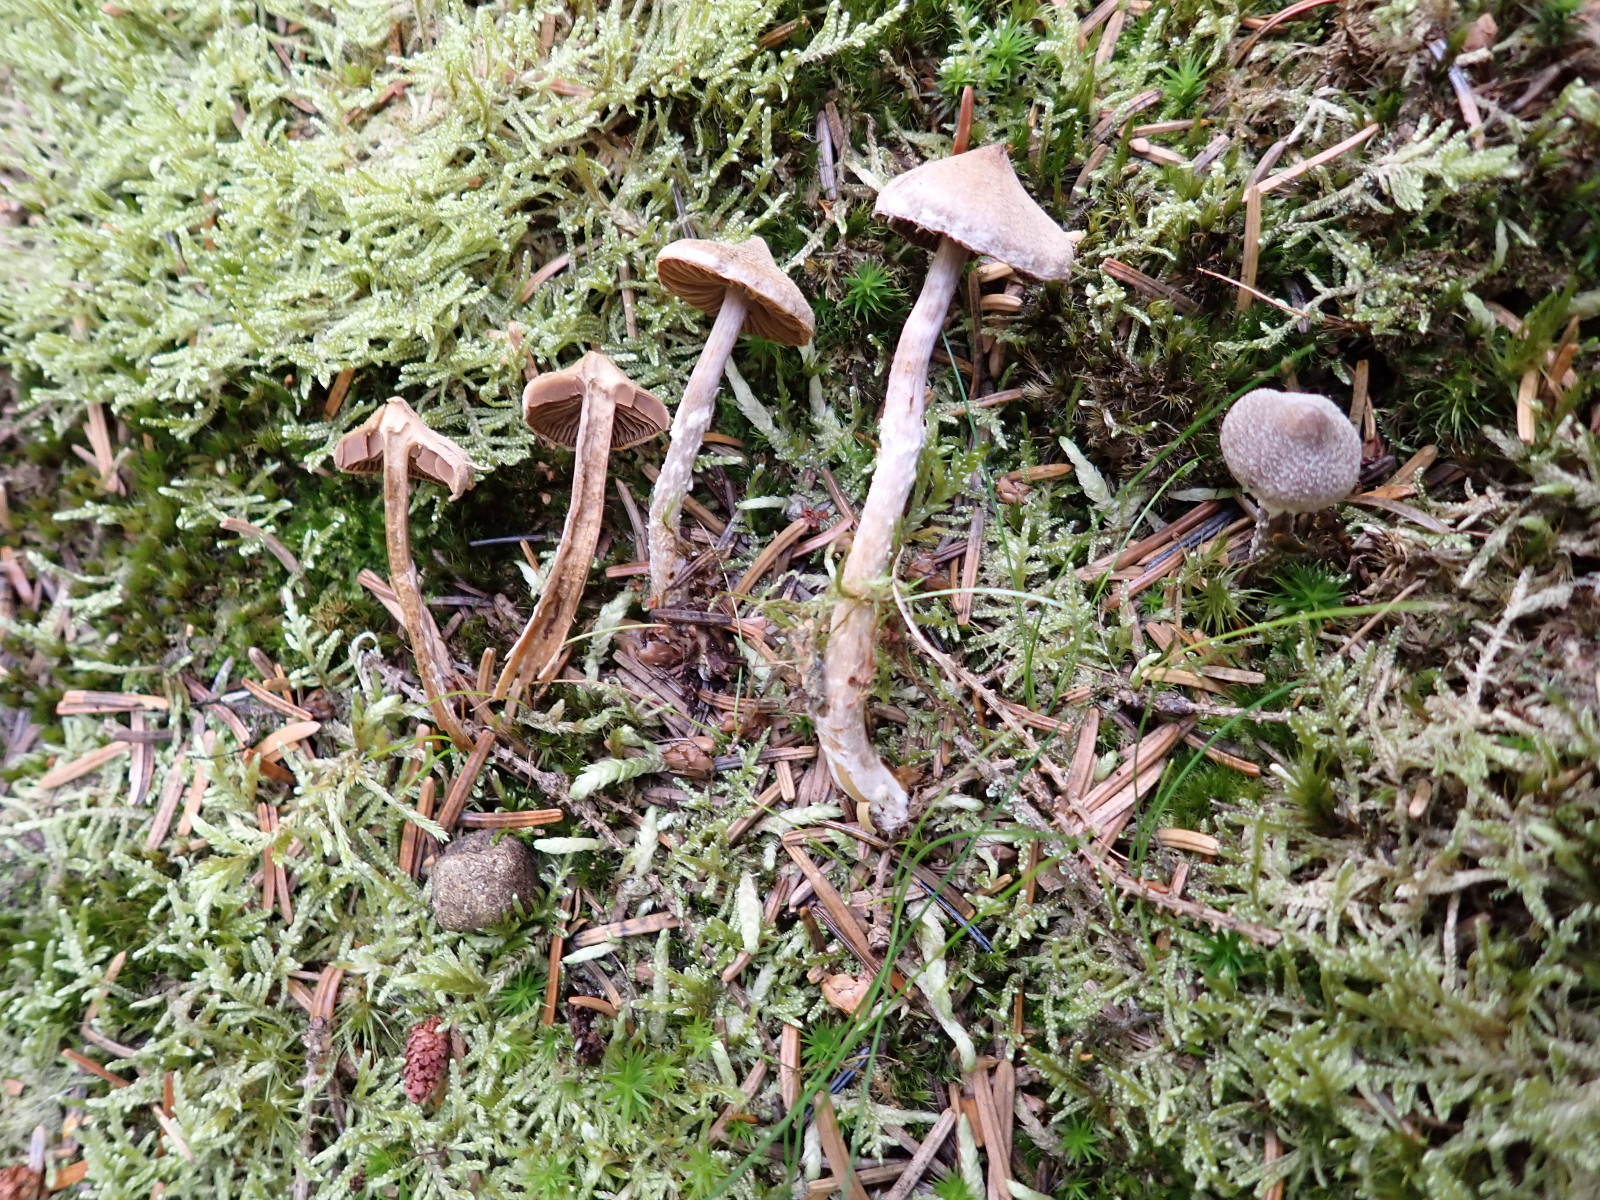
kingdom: Fungi
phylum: Basidiomycota
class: Agaricomycetes
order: Agaricales
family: Cortinariaceae
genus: Cortinarius
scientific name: Cortinarius flexipes
